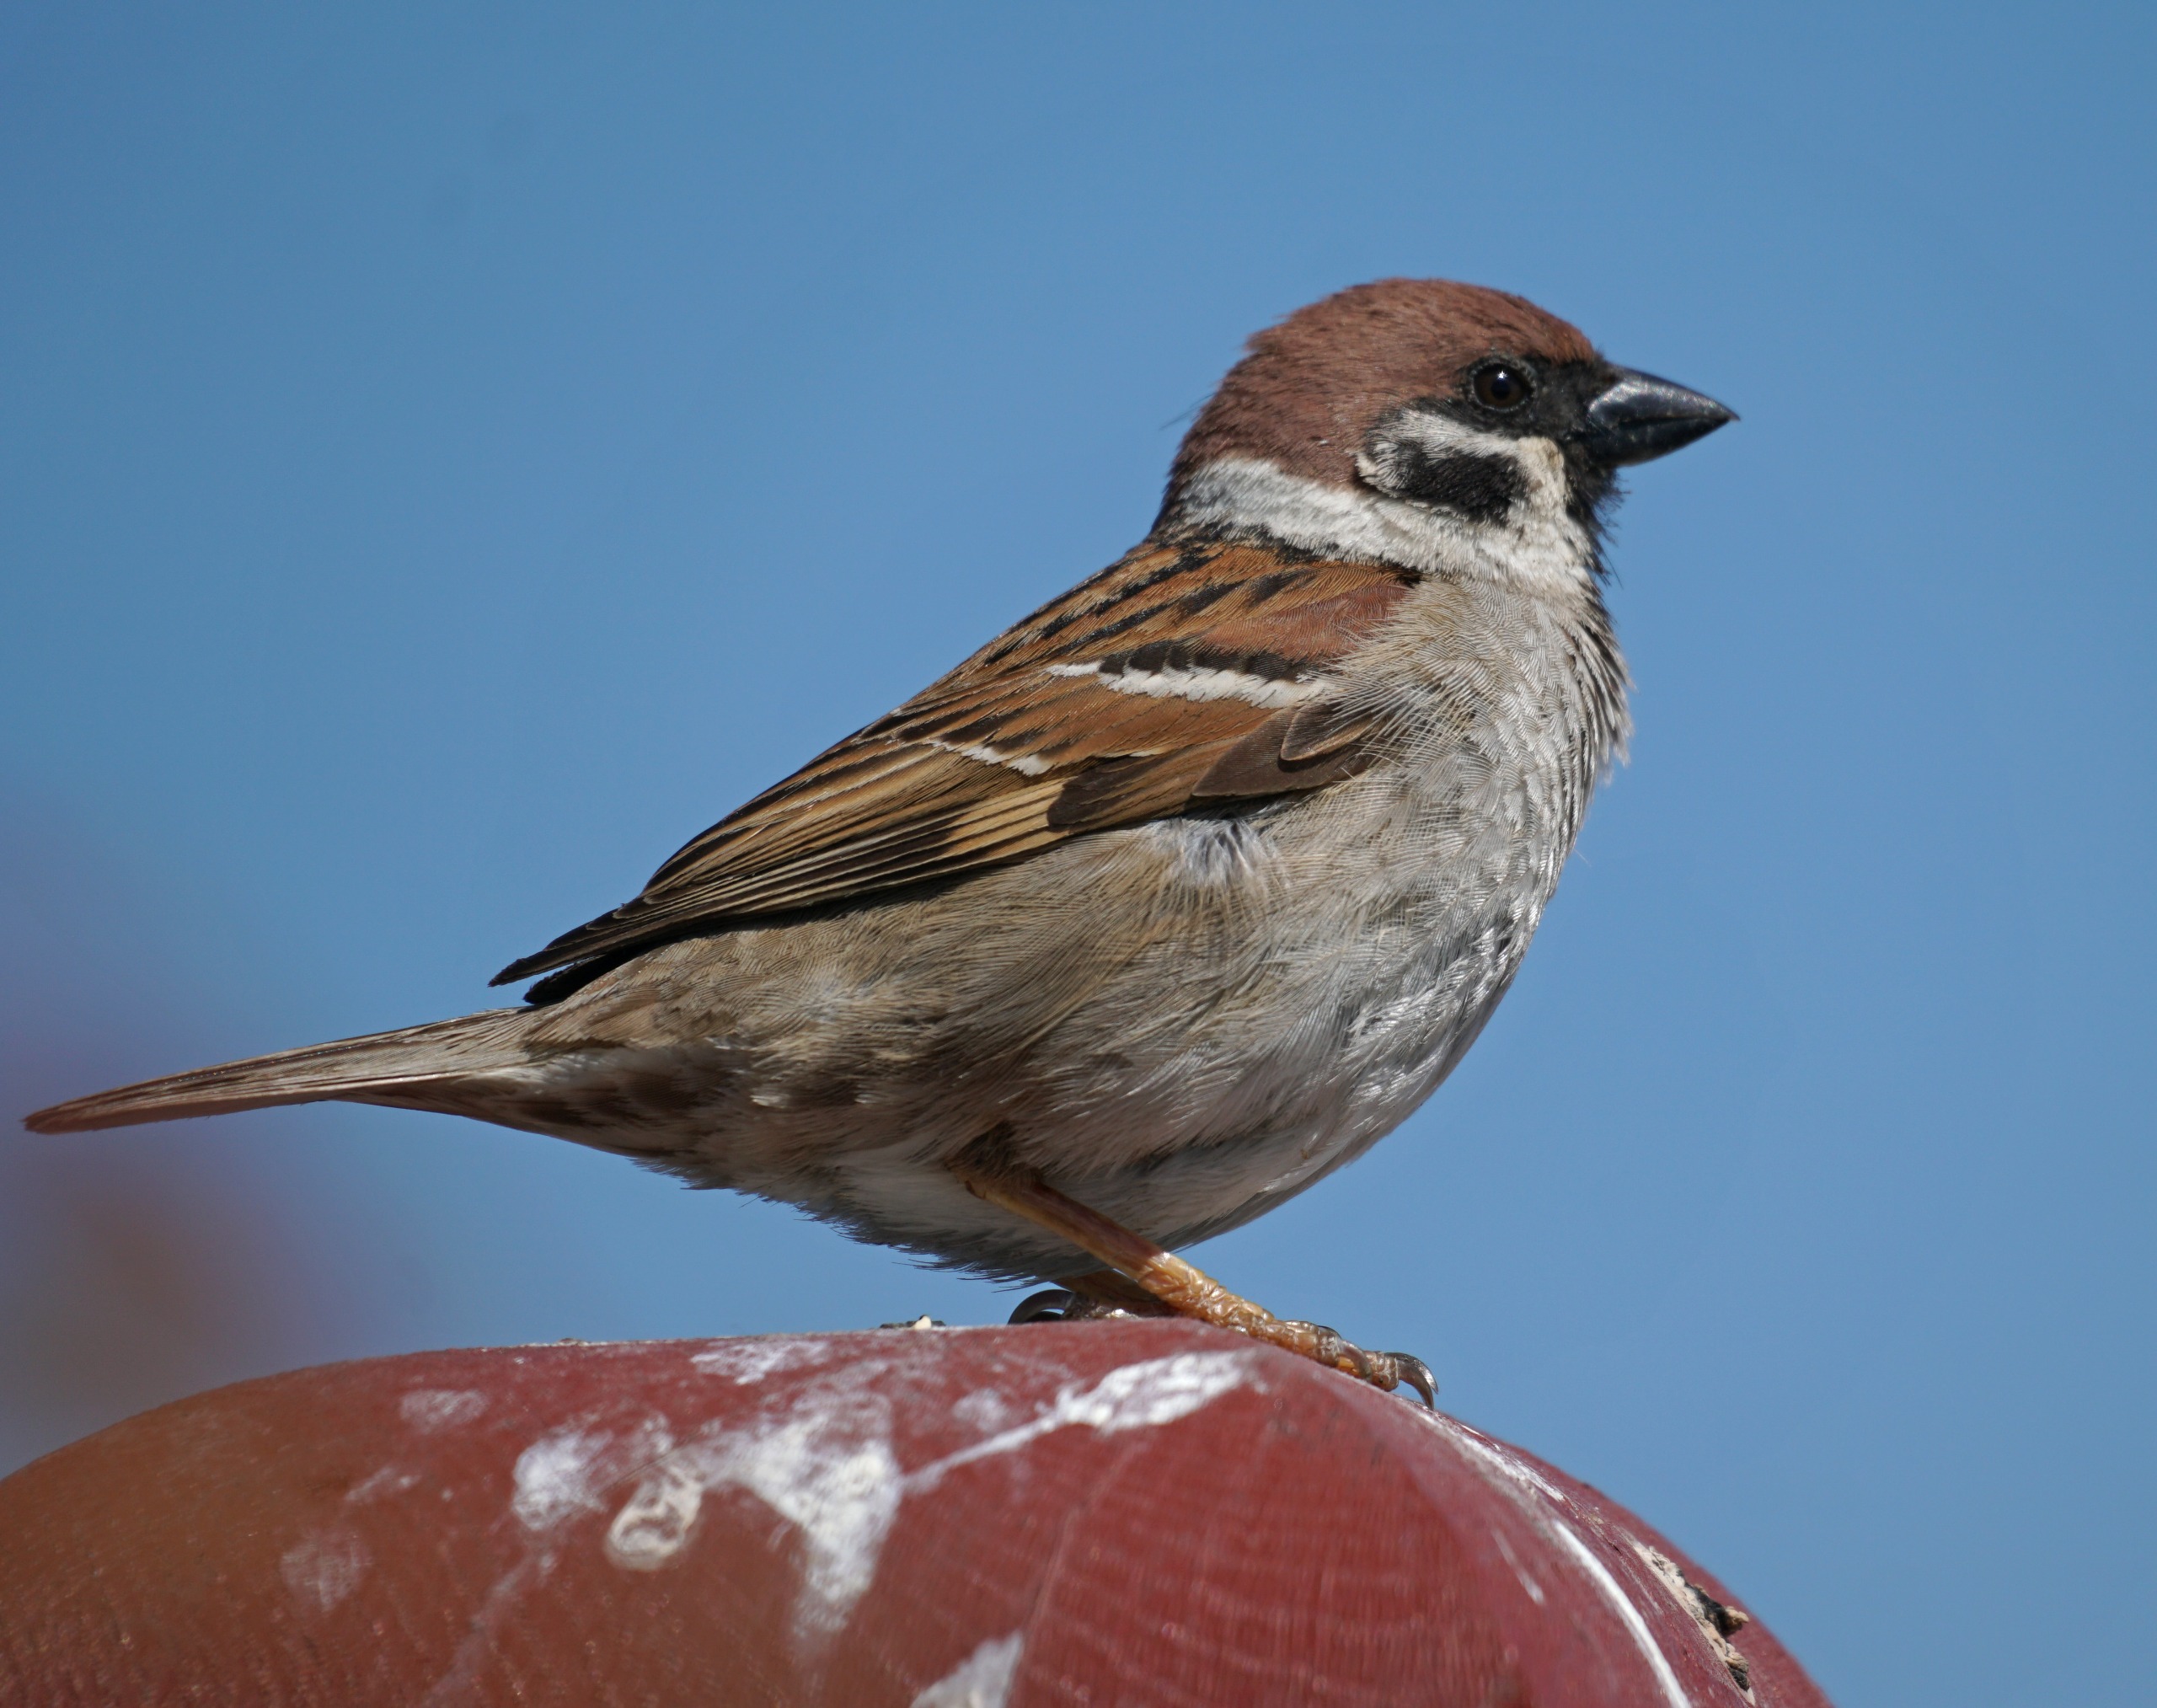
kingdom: Animalia
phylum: Chordata
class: Aves
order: Passeriformes
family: Passeridae
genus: Passer
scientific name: Passer montanus
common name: Skovspurv
